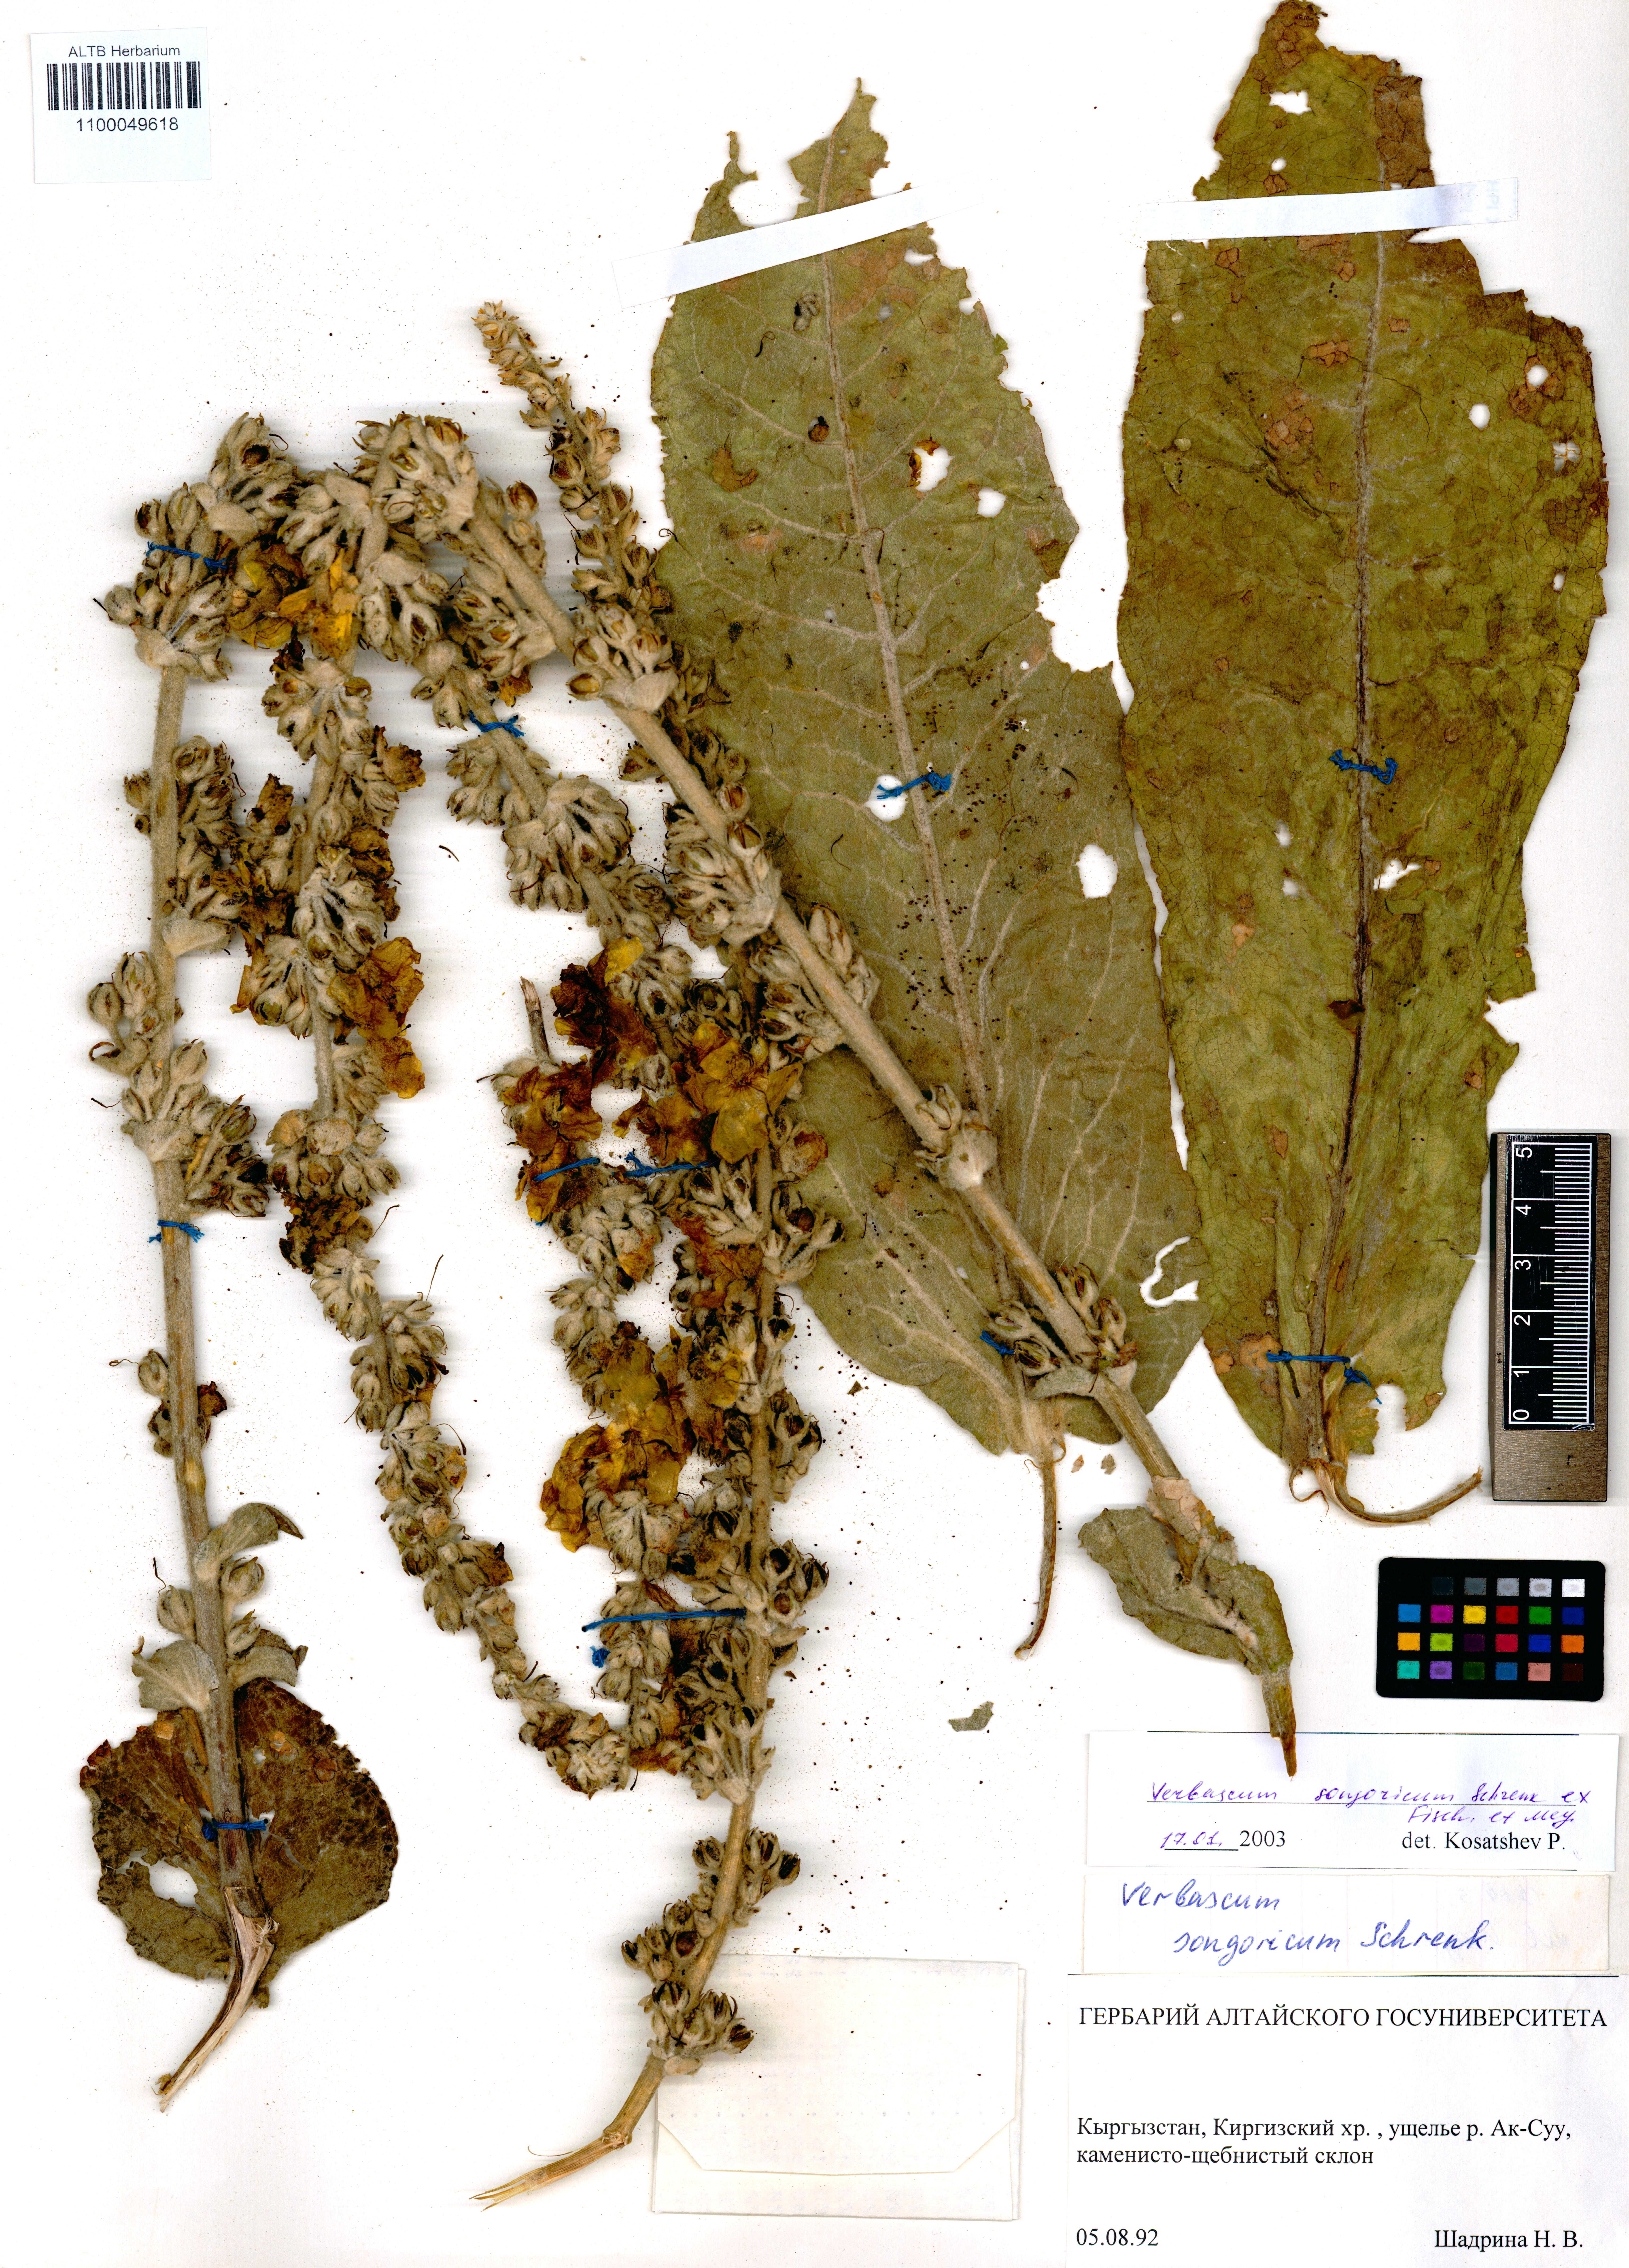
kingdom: Plantae
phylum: Tracheophyta
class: Magnoliopsida
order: Lamiales
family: Scrophulariaceae
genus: Verbascum
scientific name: Verbascum songaricum
